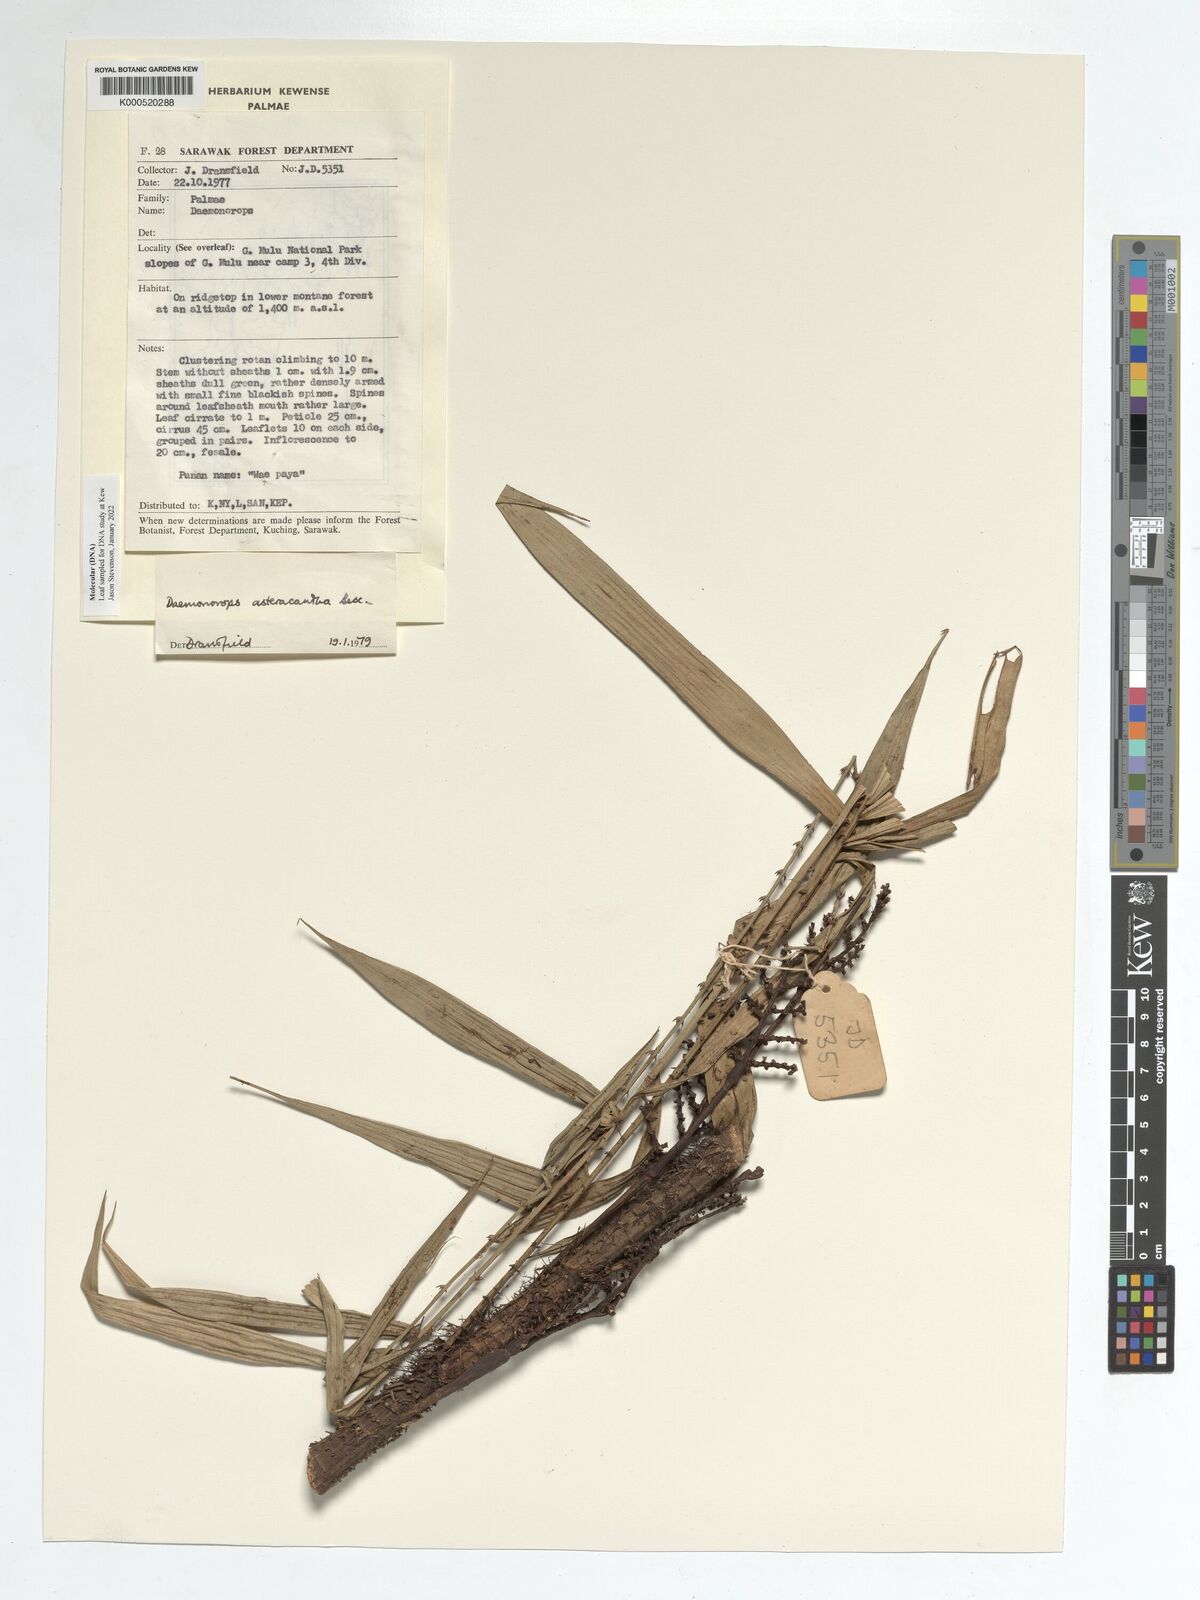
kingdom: Plantae
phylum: Tracheophyta
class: Liliopsida
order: Arecales
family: Arecaceae
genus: Calamus
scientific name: Calamus asteracanthus
